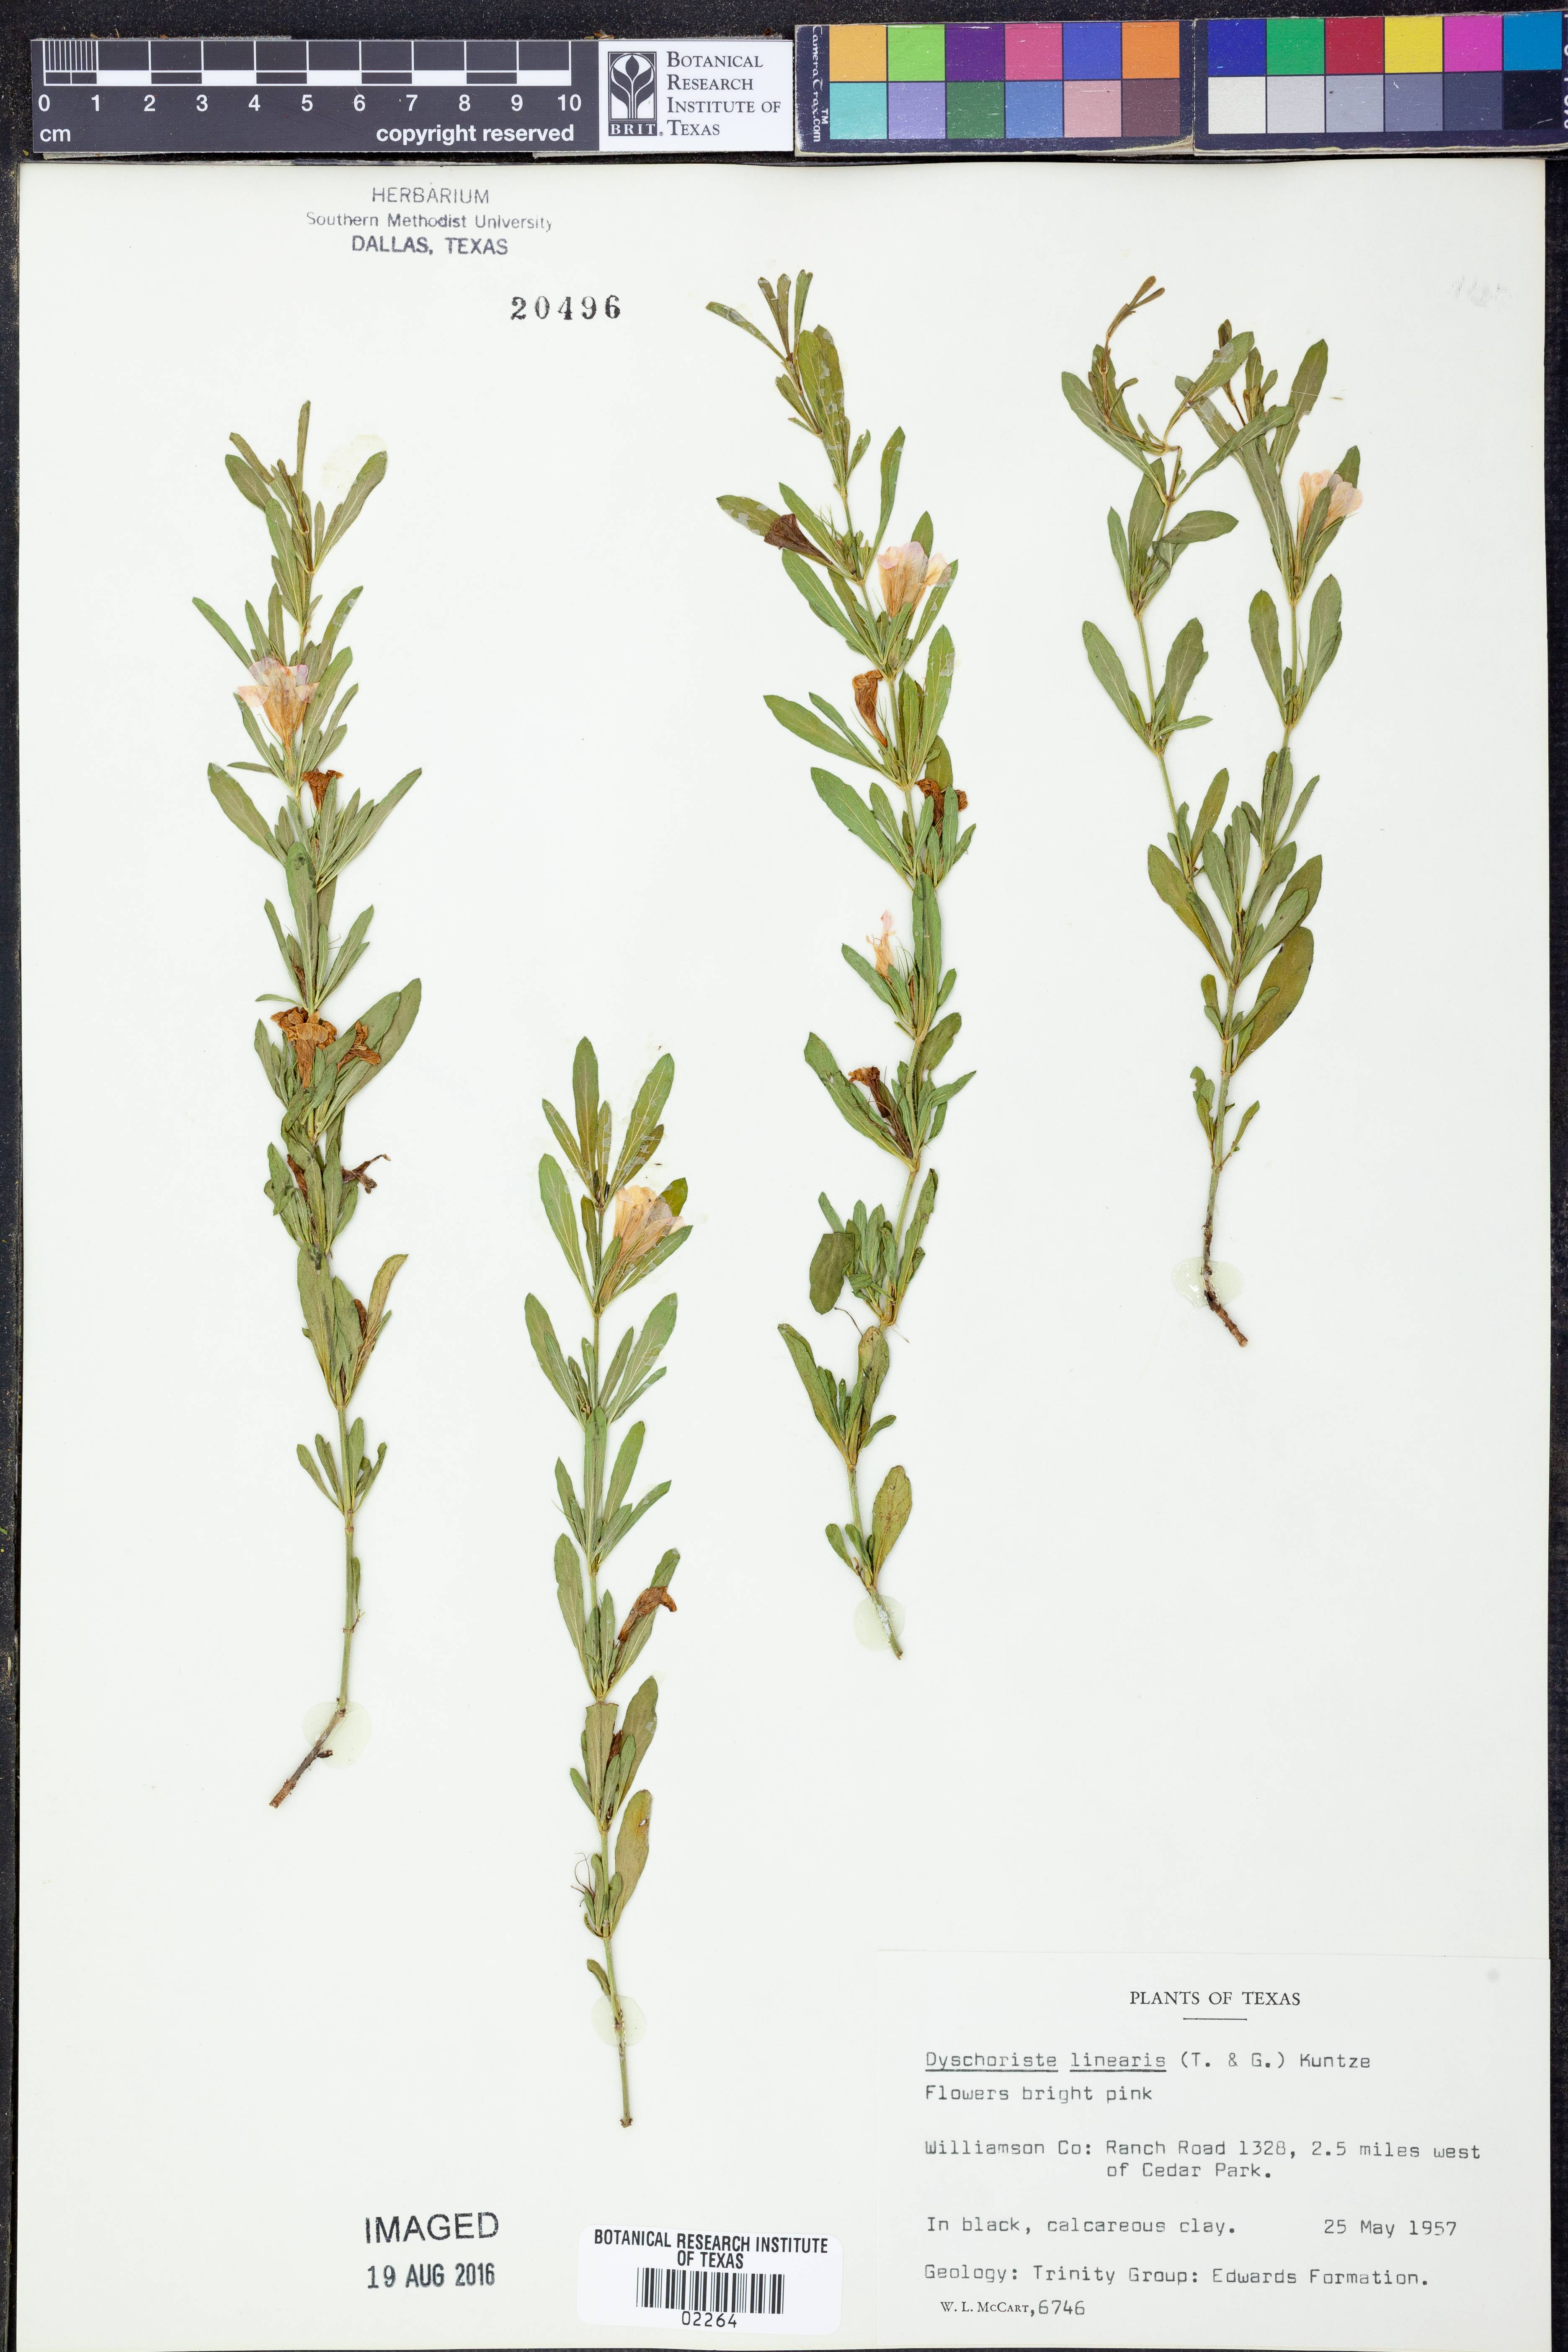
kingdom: Plantae
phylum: Tracheophyta
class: Magnoliopsida
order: Lamiales
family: Acanthaceae
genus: Dyschoriste
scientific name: Dyschoriste linearis
